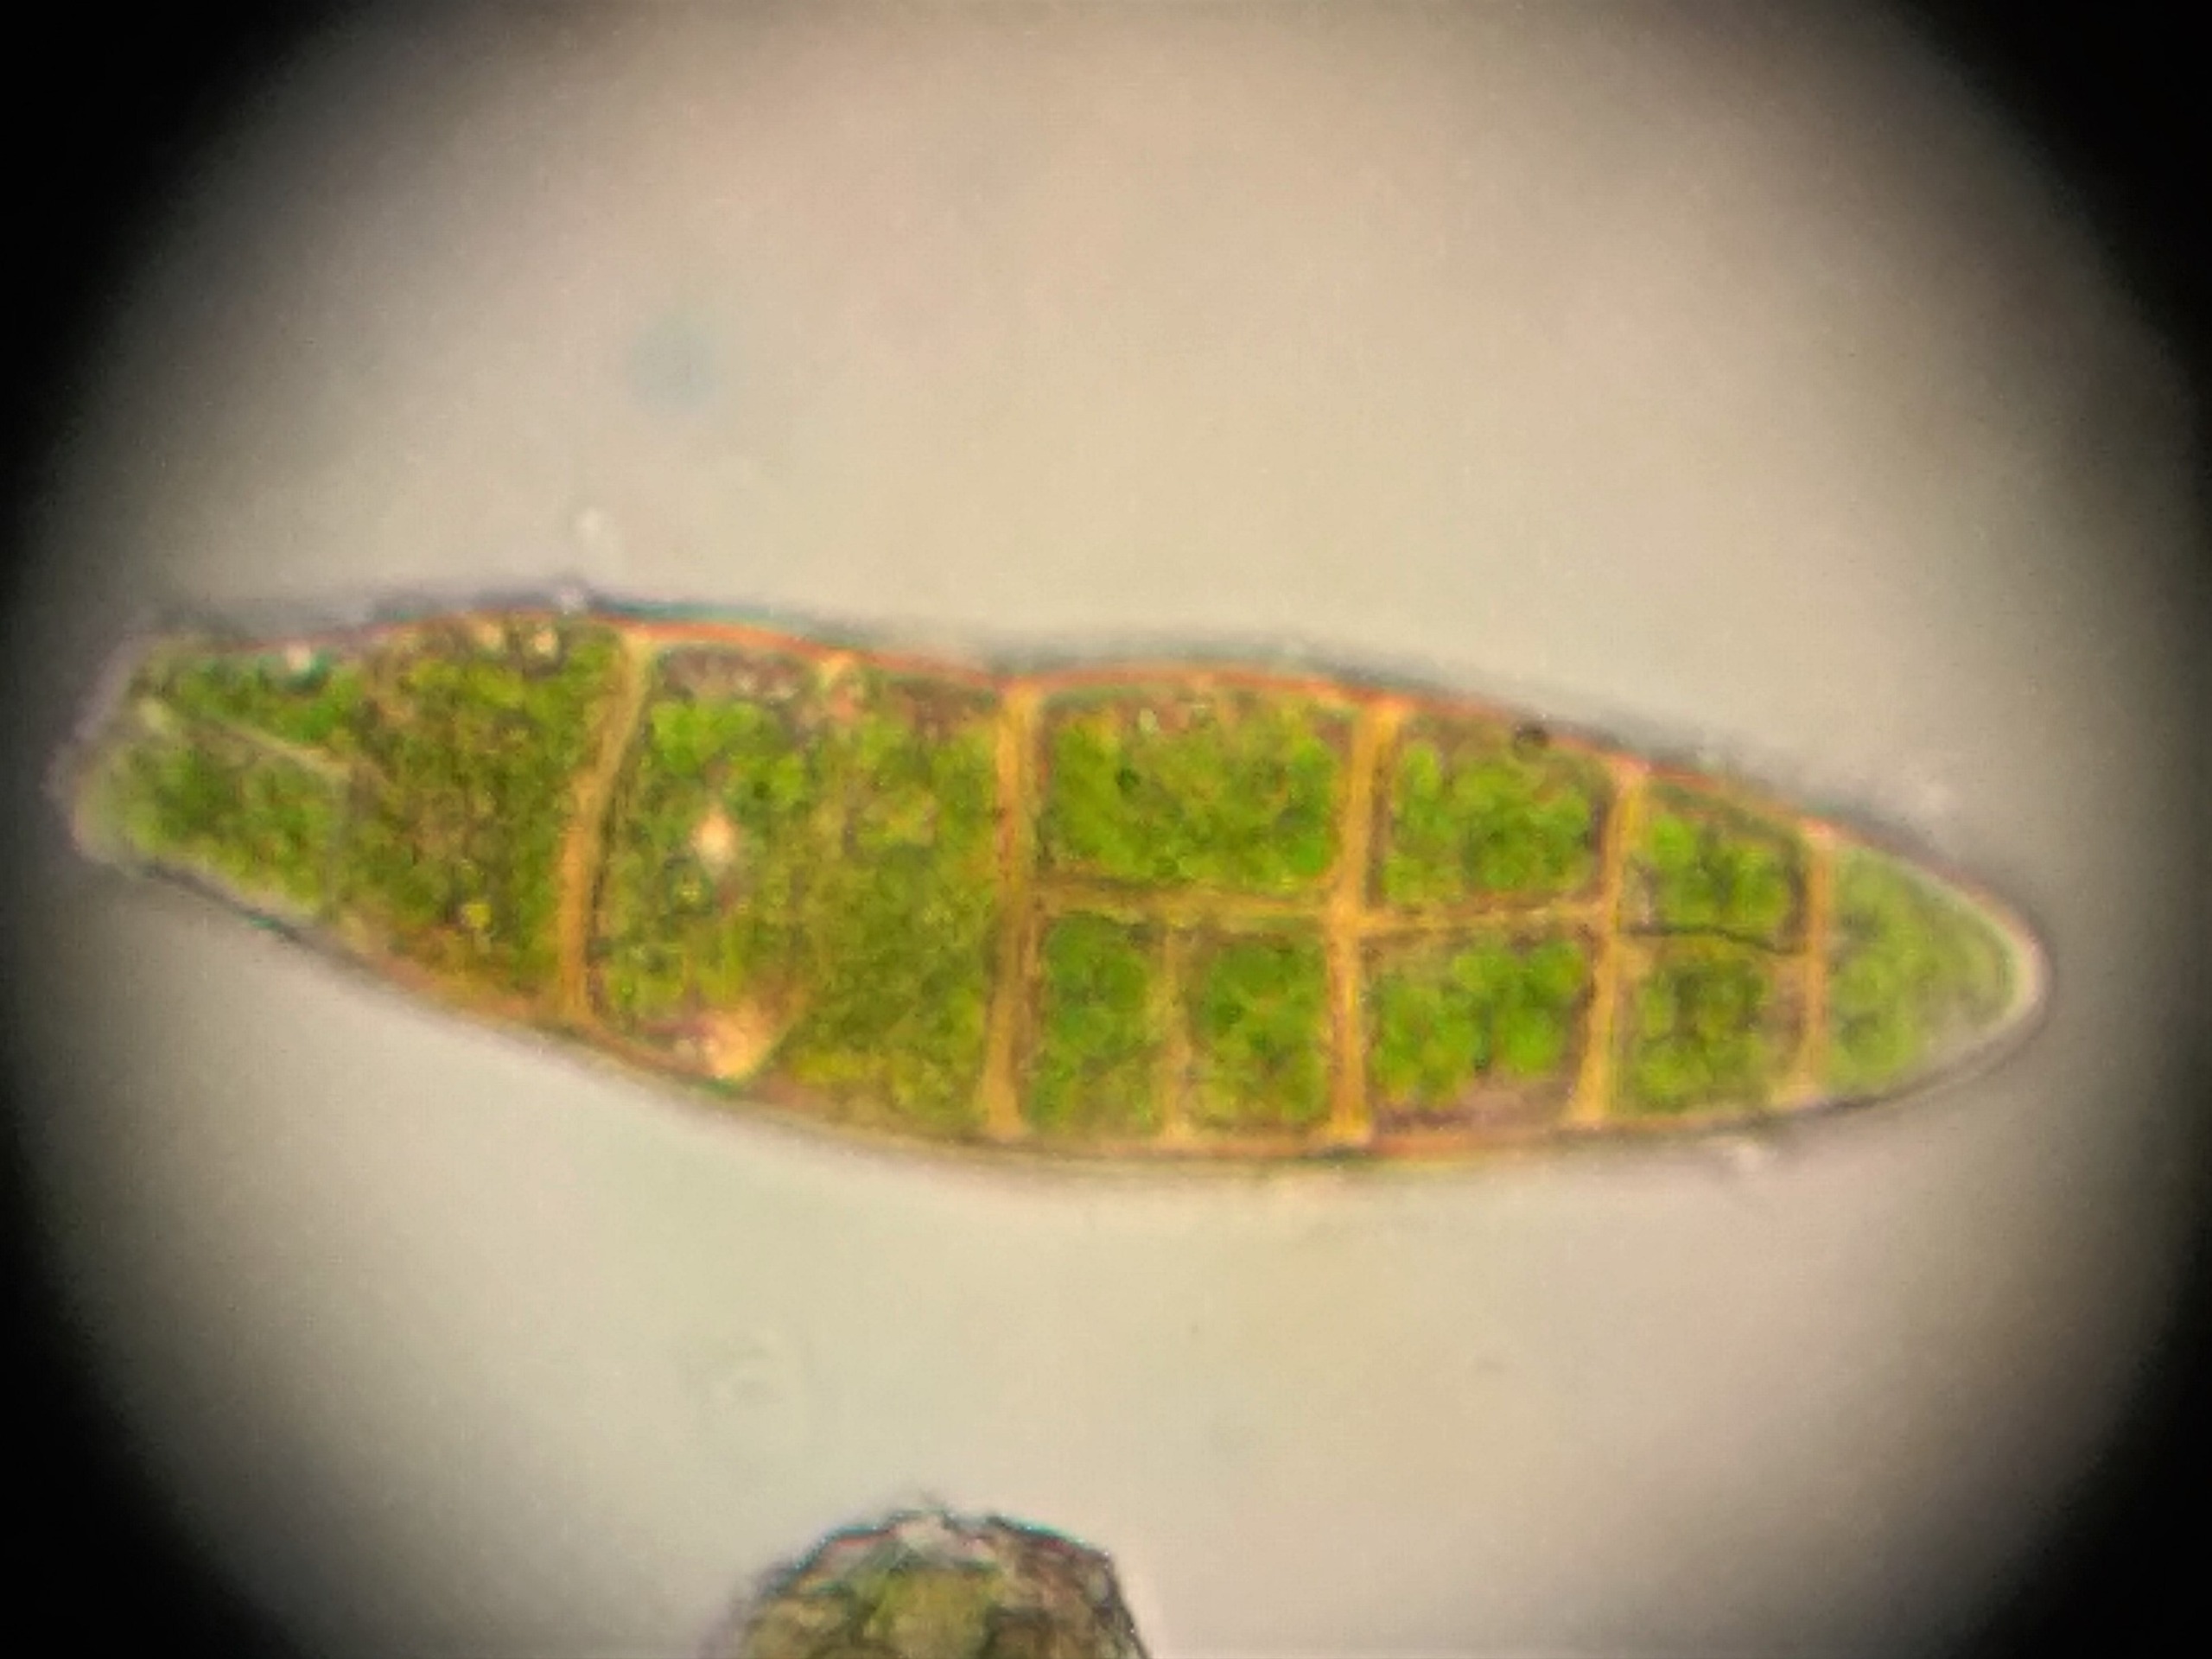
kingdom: Plantae
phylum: Bryophyta
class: Bryopsida
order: Orthotrichales
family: Orthotrichaceae
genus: Zygodon
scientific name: Zygodon viridissimus
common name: Grøn køllemos
